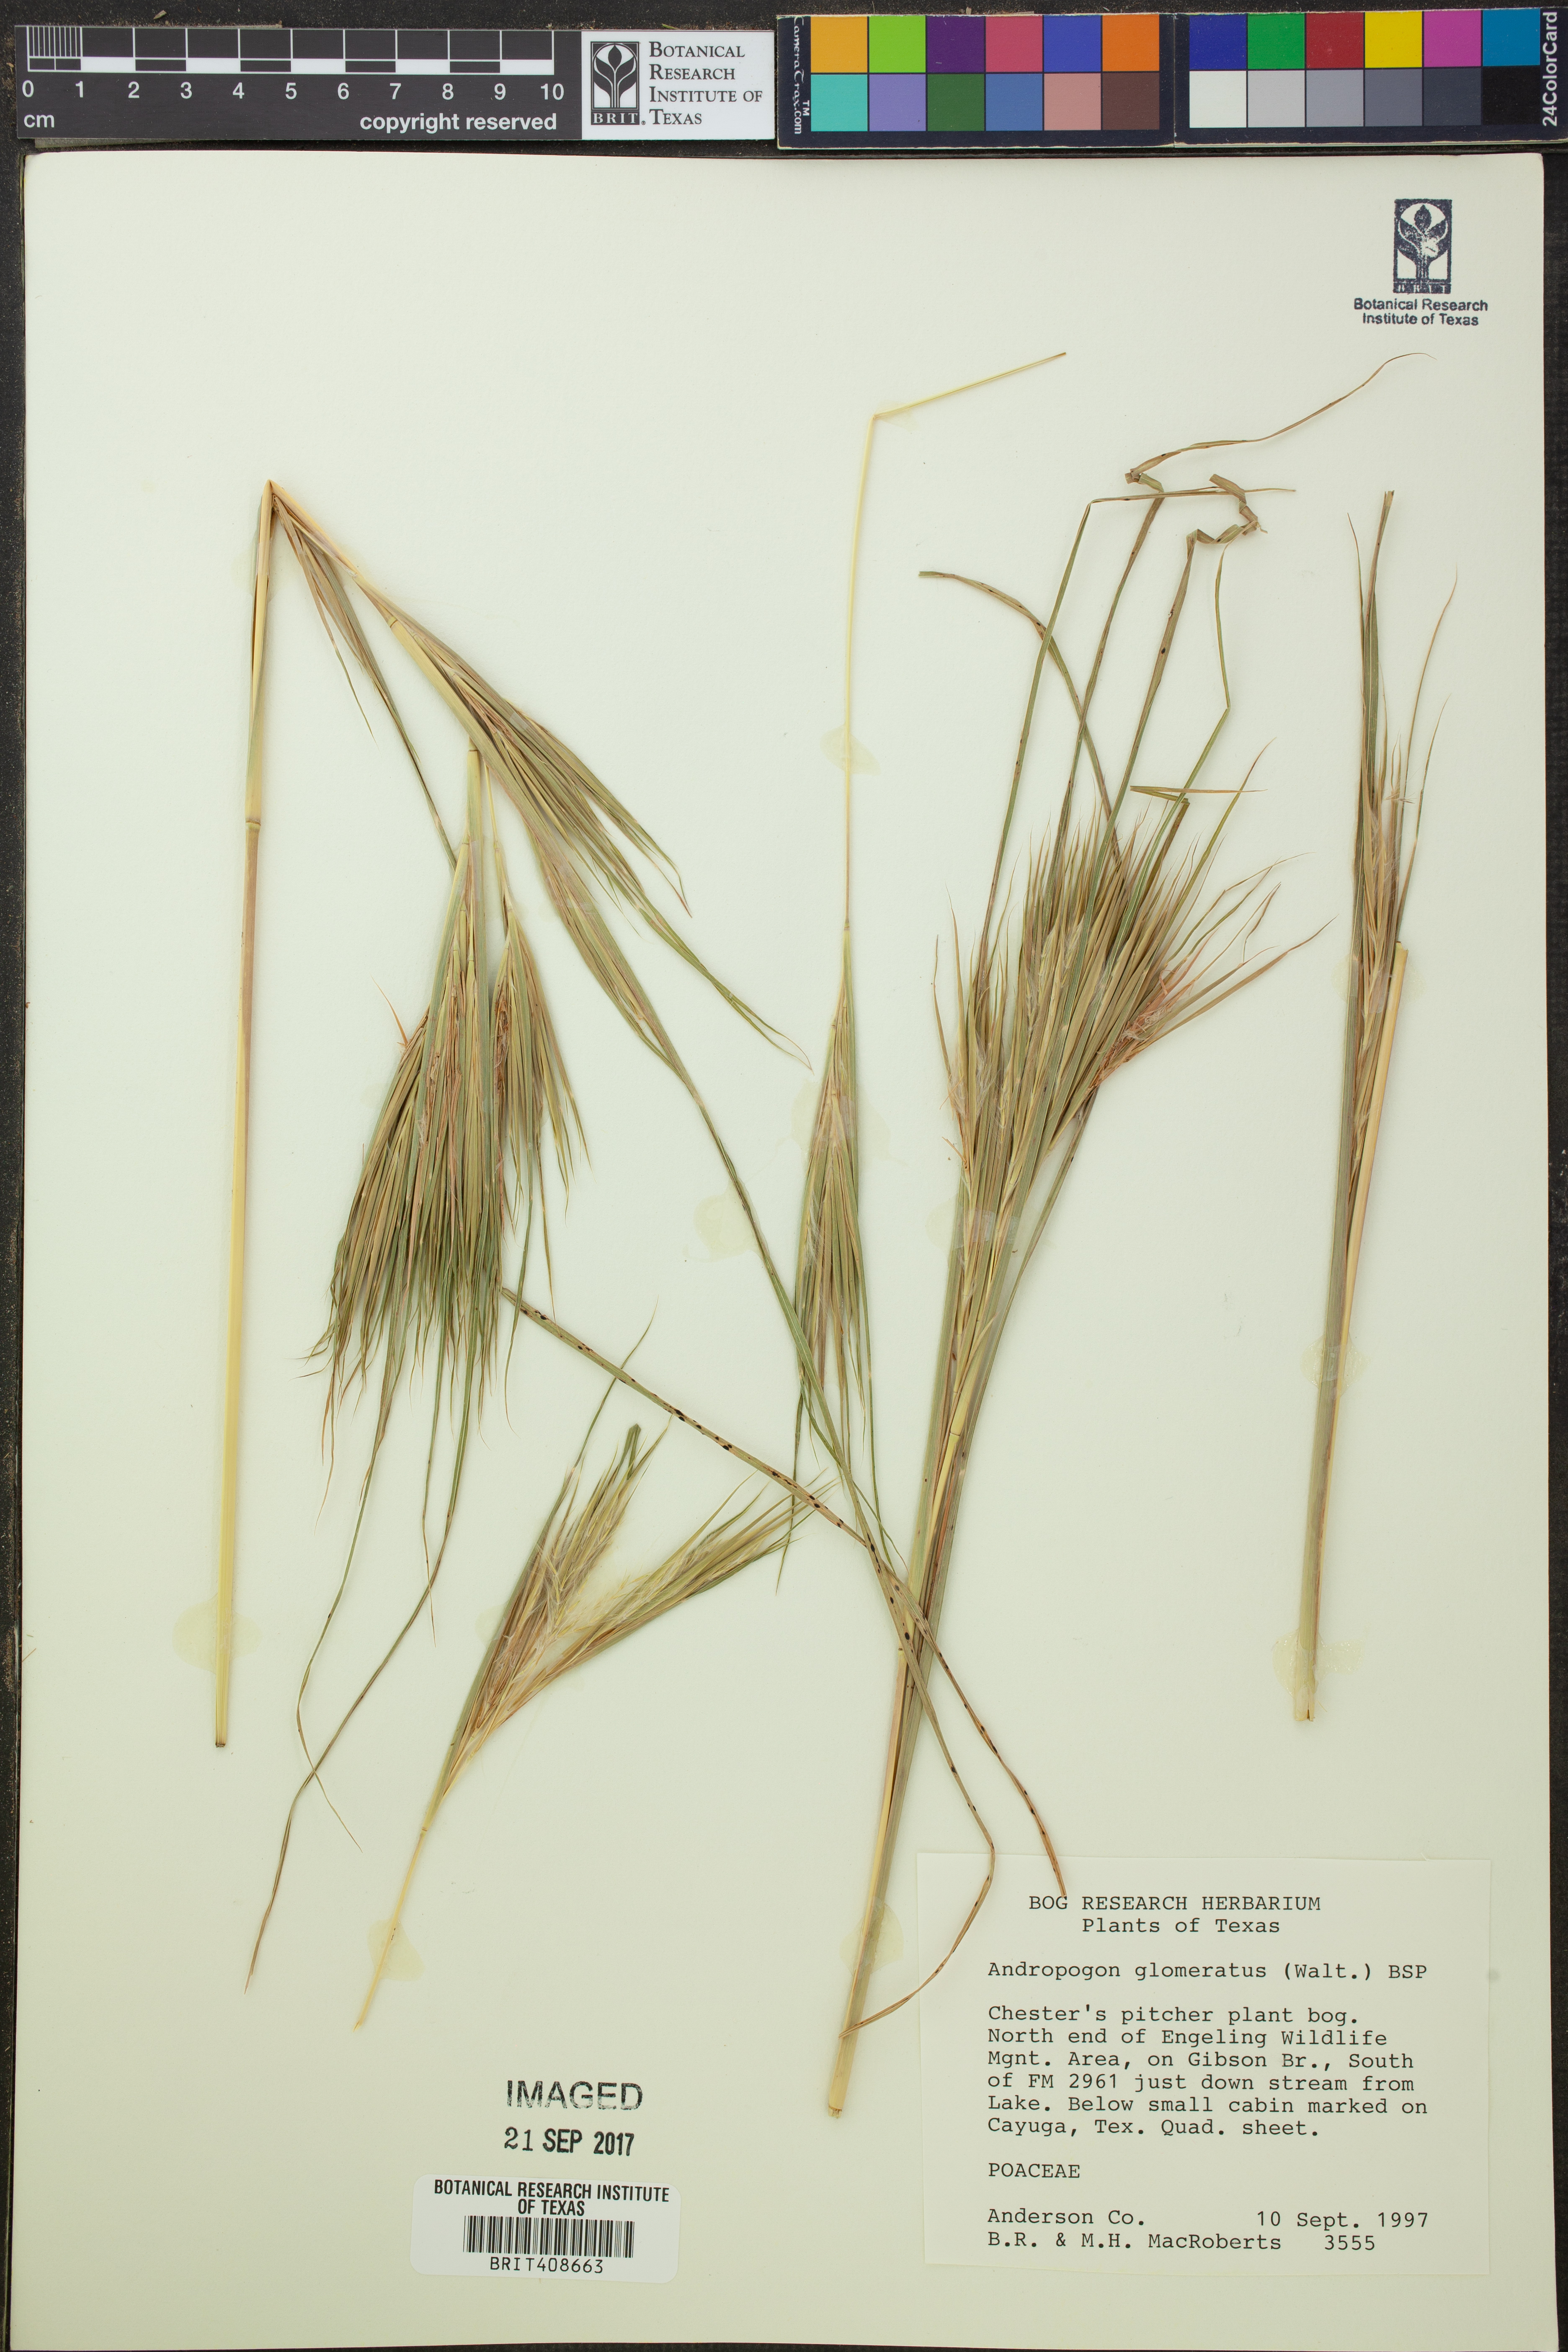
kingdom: Plantae
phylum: Tracheophyta
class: Liliopsida
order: Poales
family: Poaceae
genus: Andropogon
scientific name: Andropogon glomeratus
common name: Bushy beard grass
